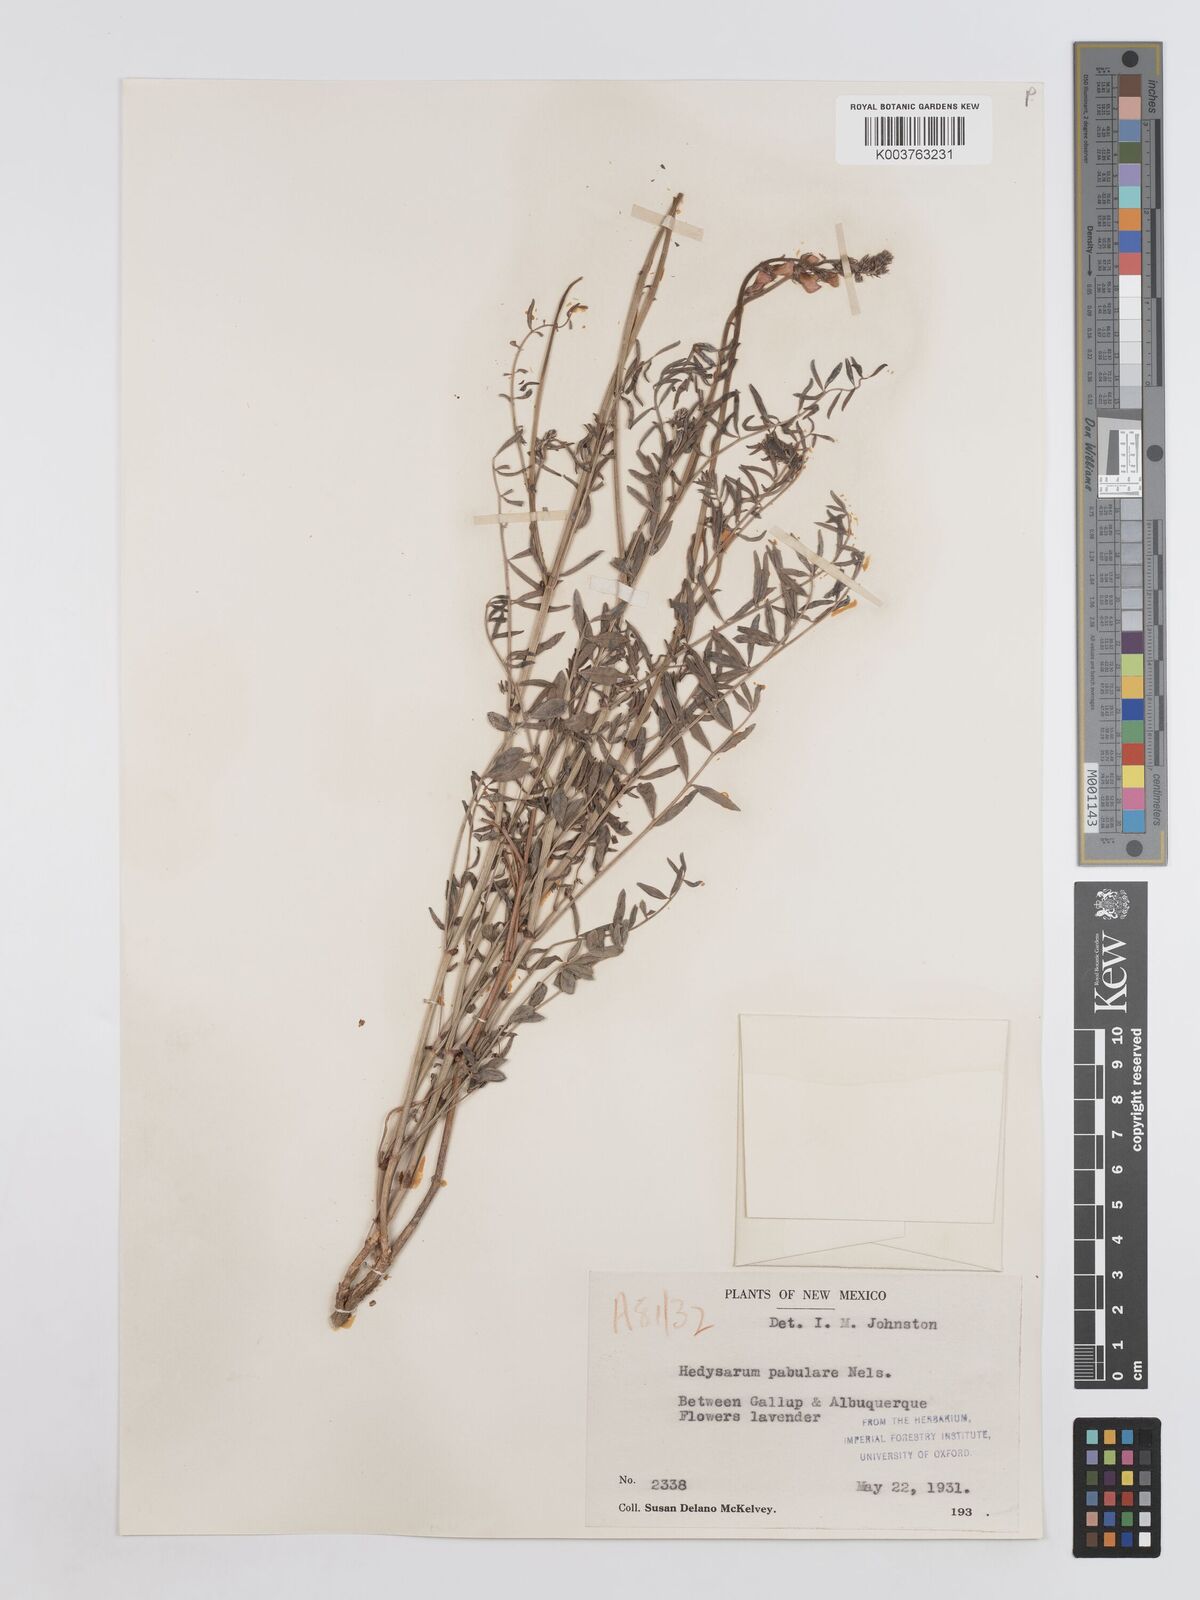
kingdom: Plantae
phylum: Tracheophyta
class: Magnoliopsida
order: Fabales
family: Fabaceae
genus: Hedysarum
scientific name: Hedysarum boreale
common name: Northern sweet-vetch
